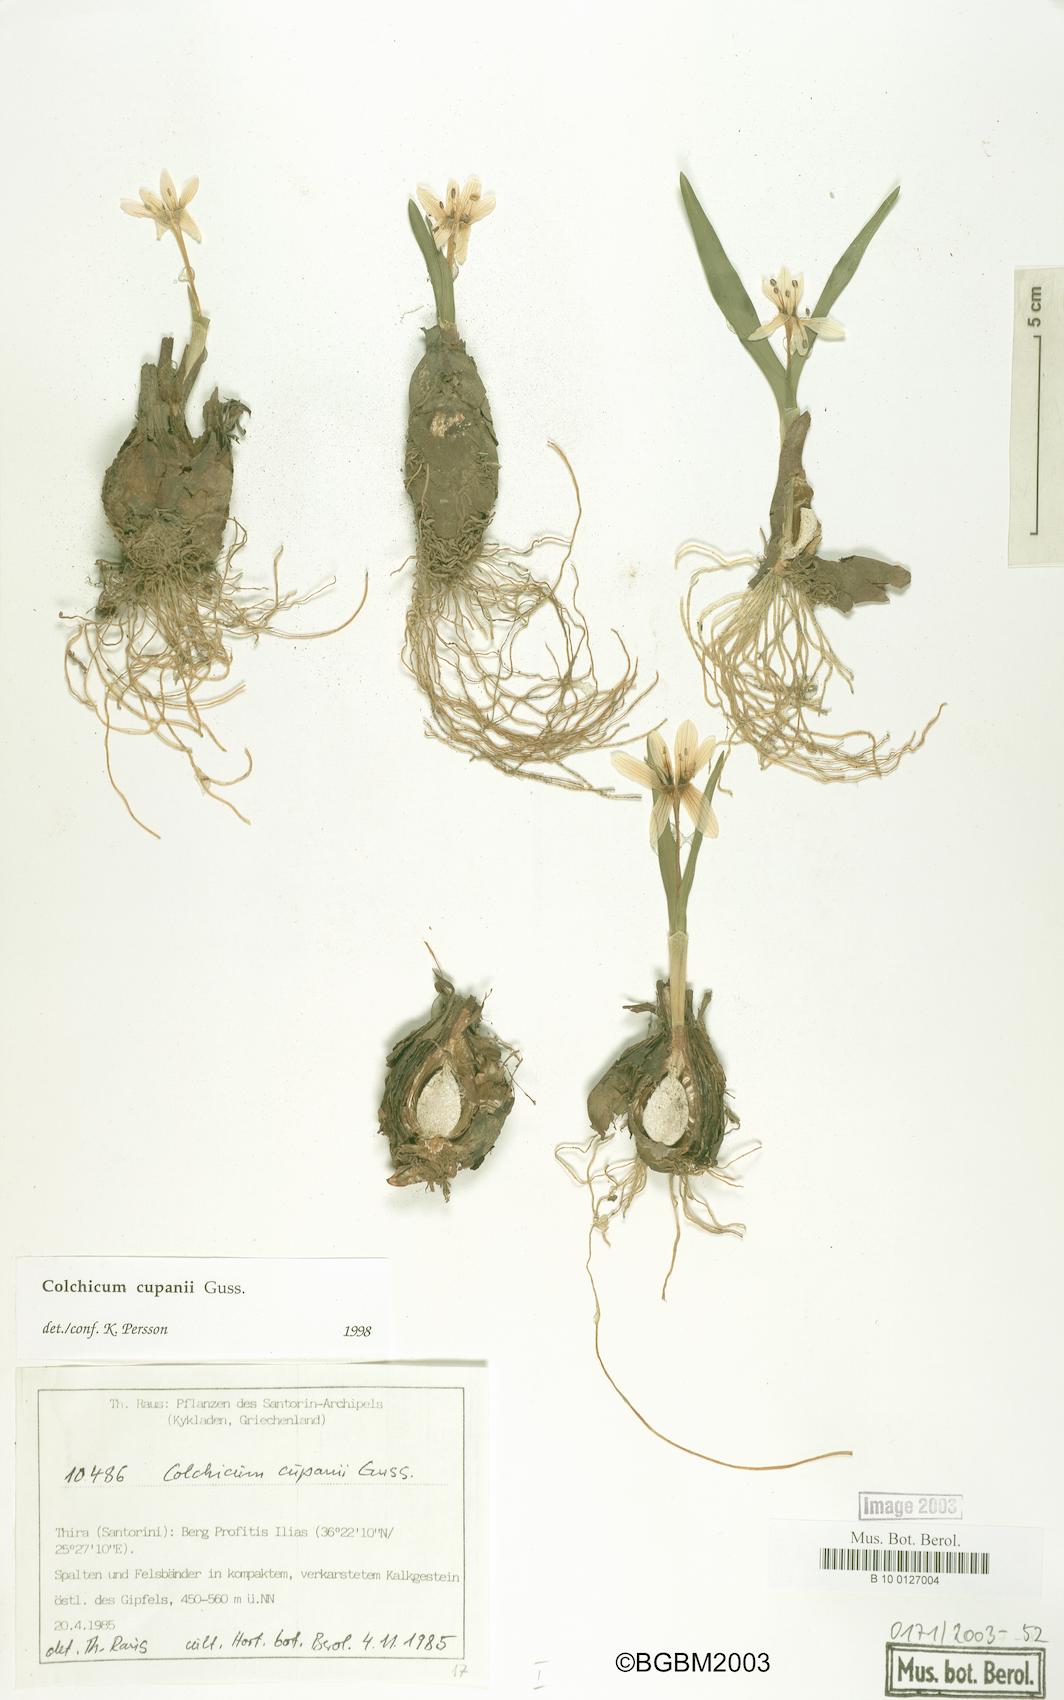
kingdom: Plantae
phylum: Tracheophyta
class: Liliopsida
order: Liliales
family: Colchicaceae
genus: Colchicum
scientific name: Colchicum cupanii
